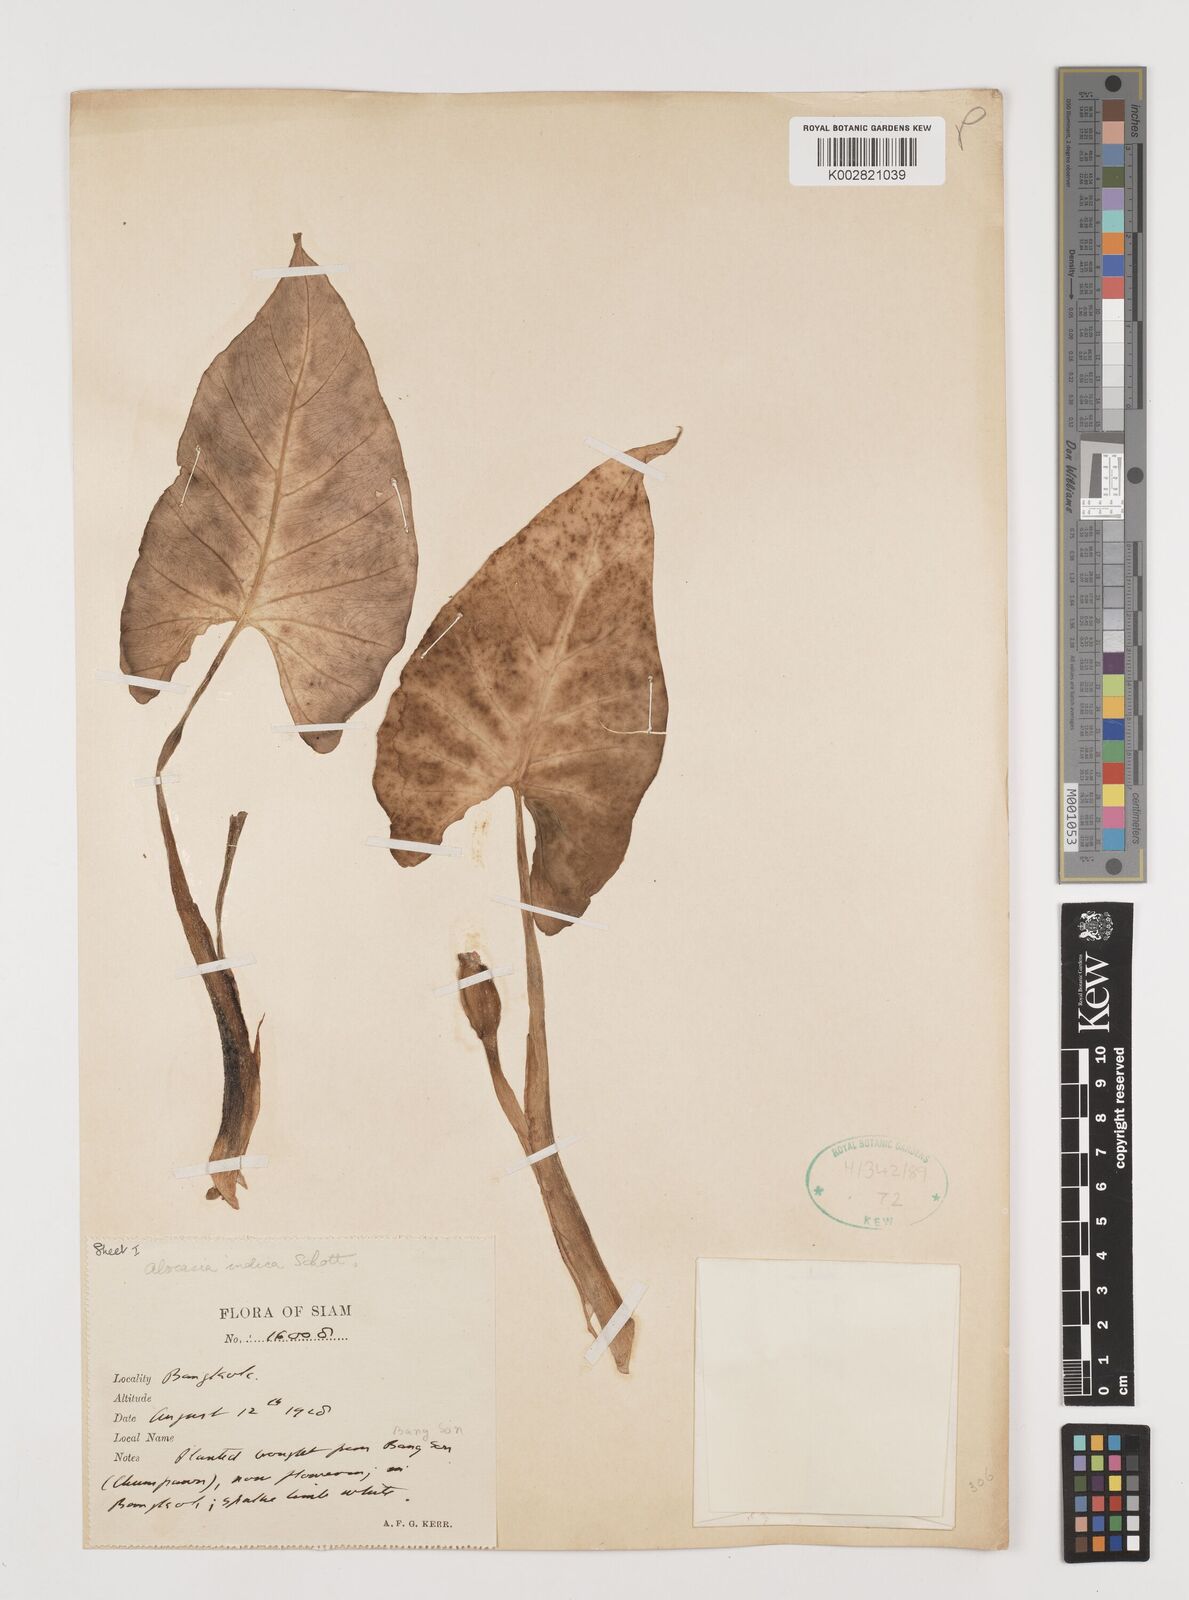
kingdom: Plantae
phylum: Tracheophyta
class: Liliopsida
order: Alismatales
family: Araceae
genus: Alocasia
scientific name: Alocasia macrorrhizos
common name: Giant taro
